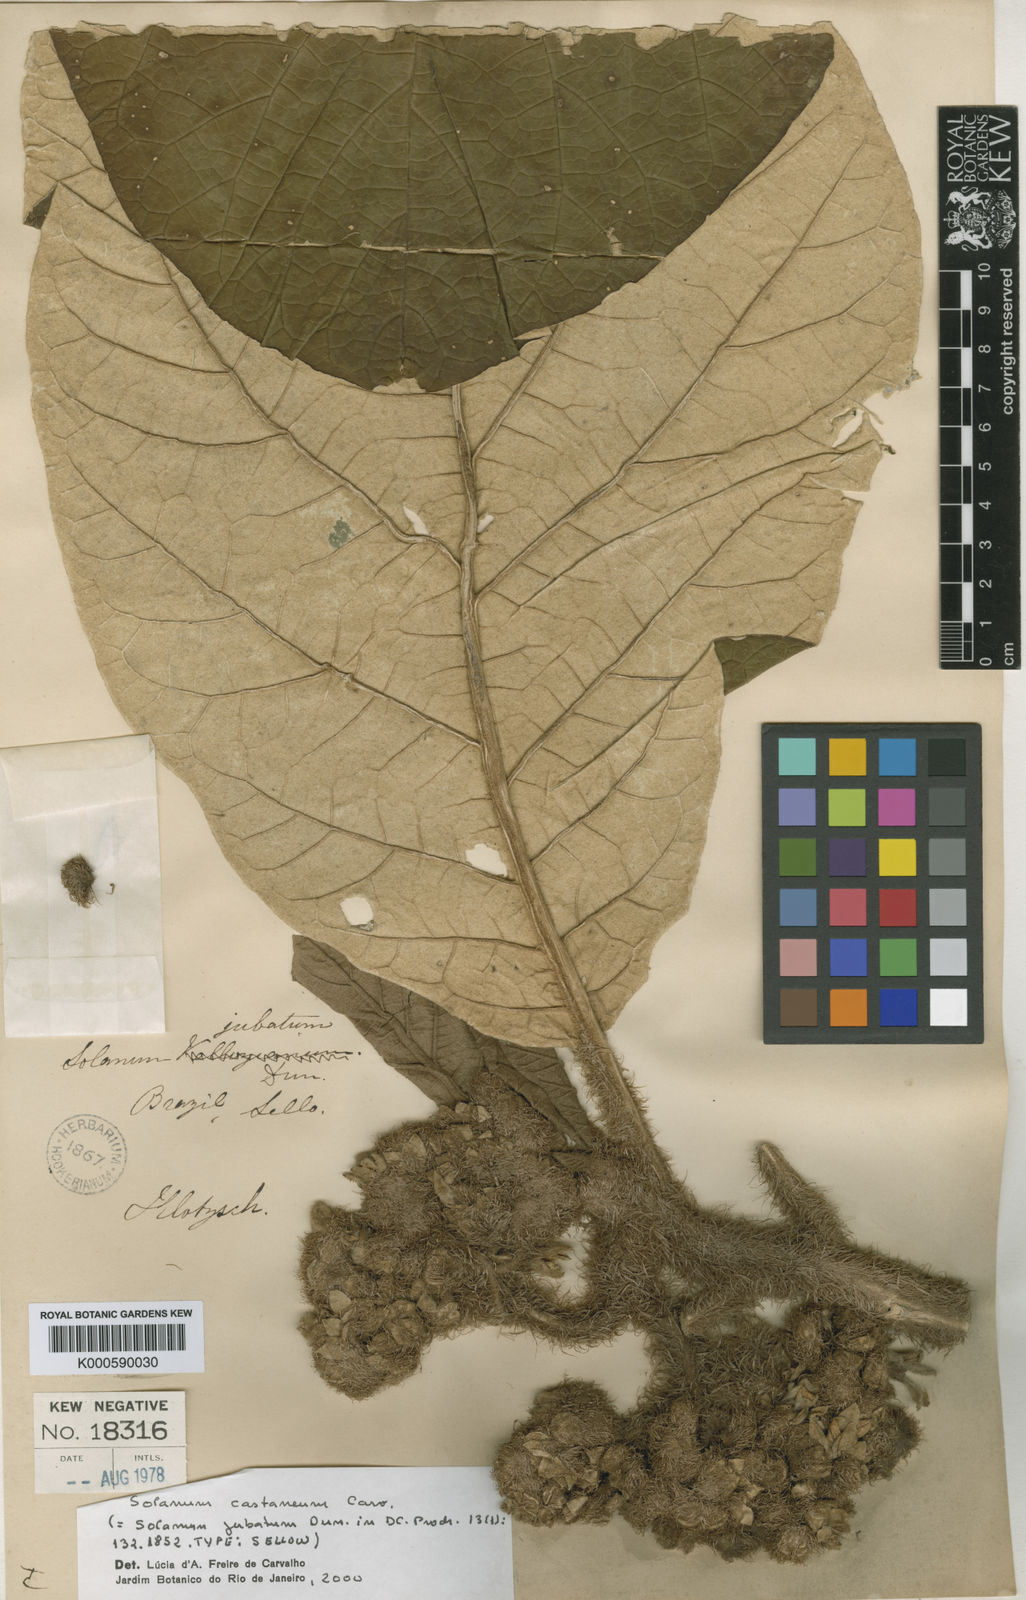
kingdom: Plantae
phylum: Tracheophyta
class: Magnoliopsida
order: Solanales
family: Solanaceae
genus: Solanum
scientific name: Solanum cernuum
